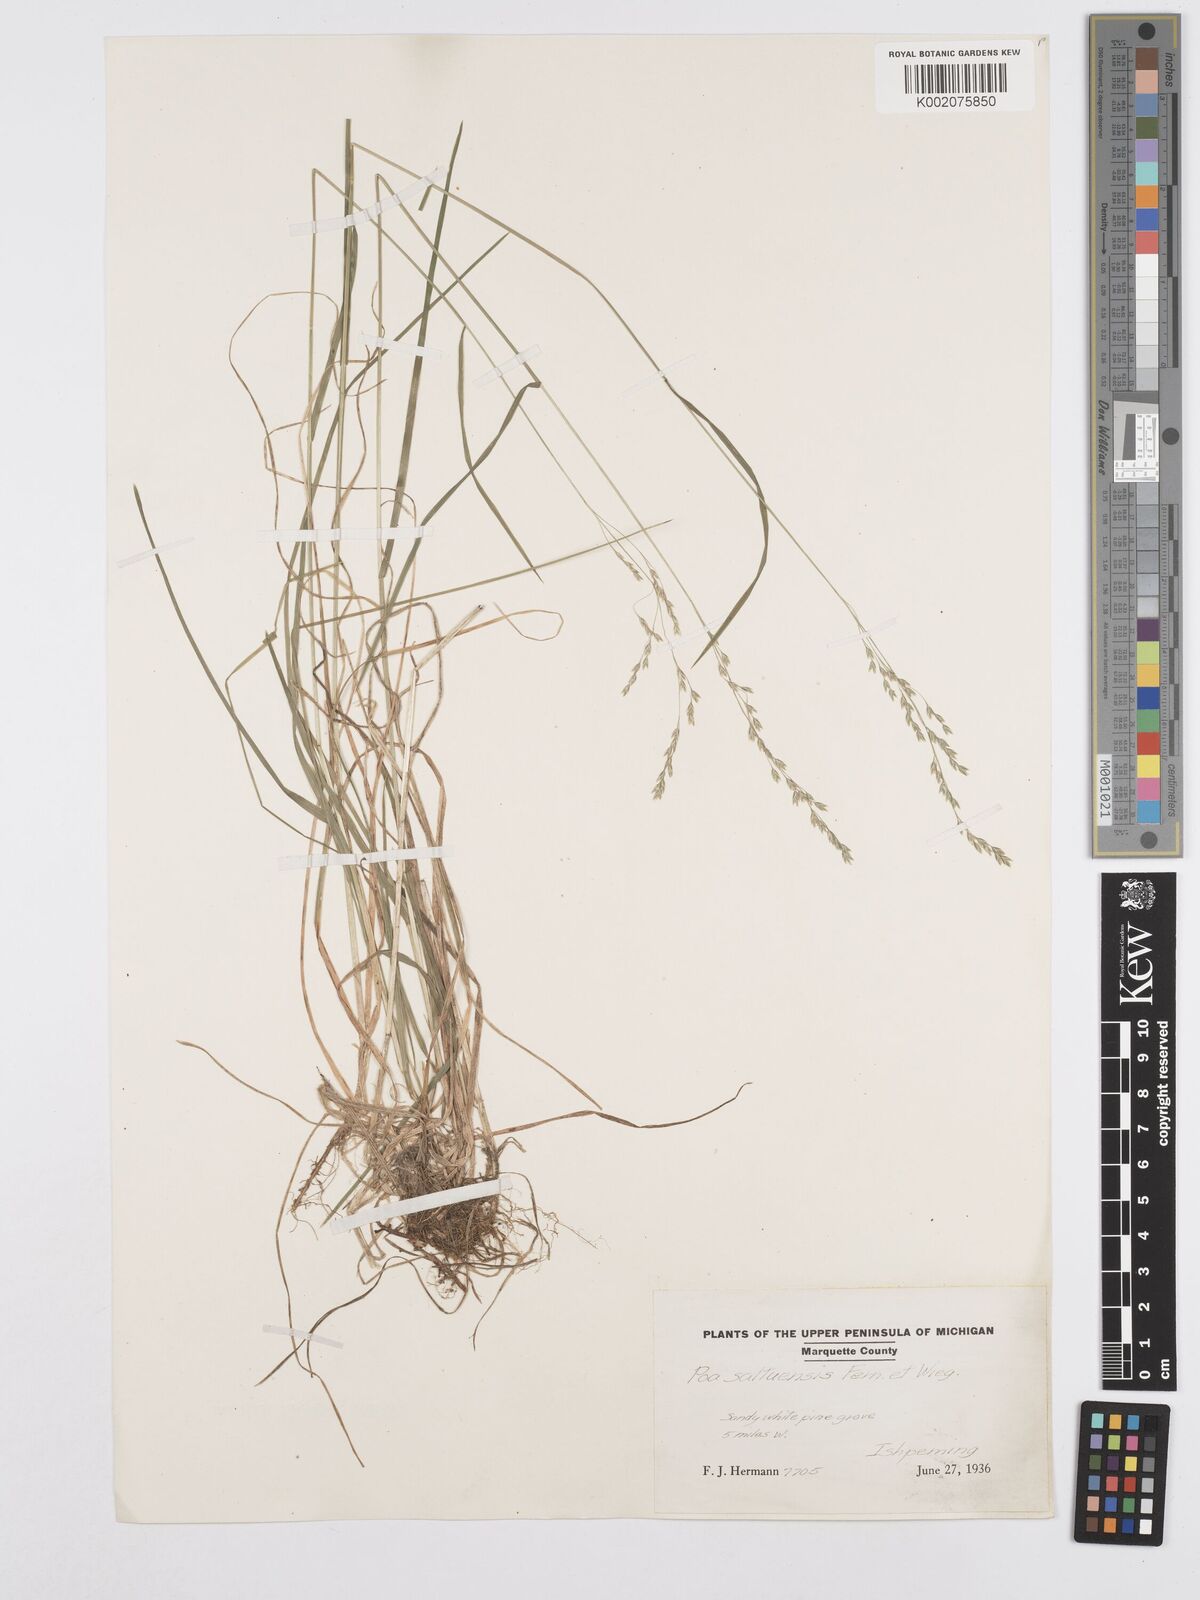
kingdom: Plantae
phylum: Tracheophyta
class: Liliopsida
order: Poales
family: Poaceae
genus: Poa
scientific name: Poa saltuensis
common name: Bushy pasture speargrass
